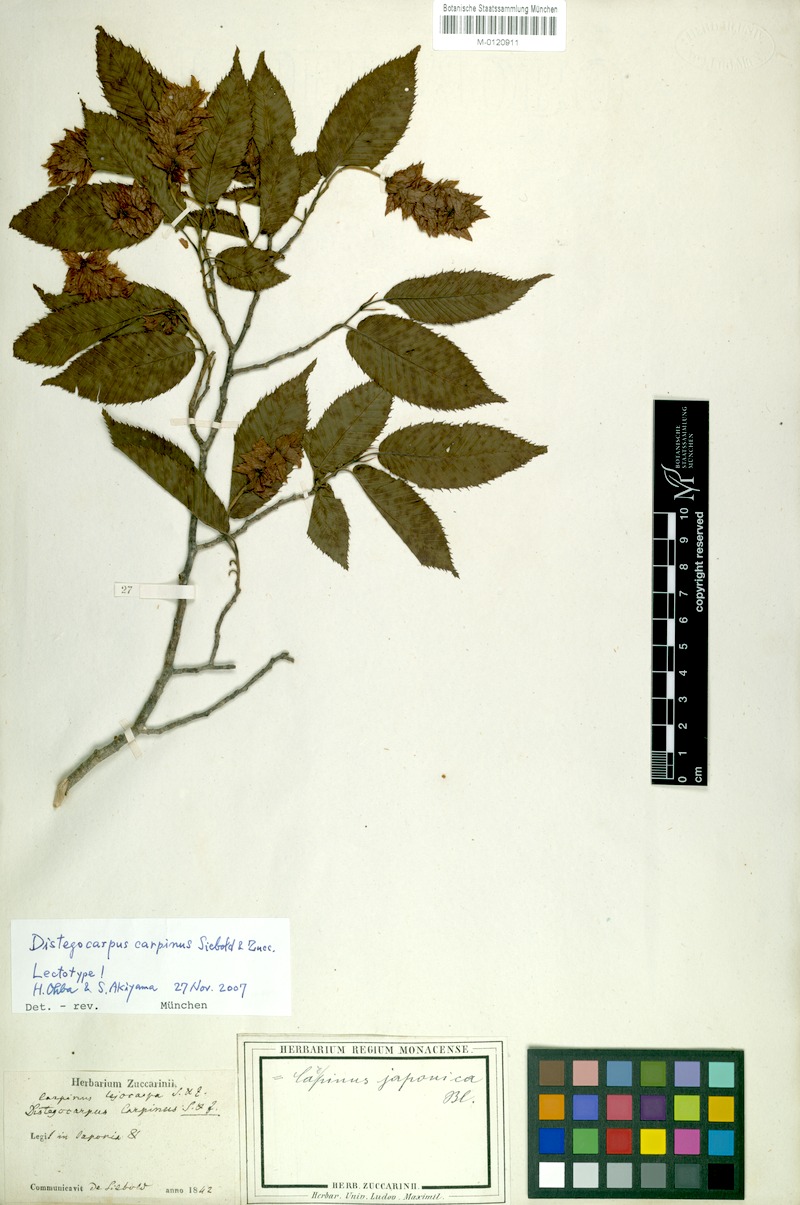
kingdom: Plantae
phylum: Tracheophyta
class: Magnoliopsida
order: Fagales
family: Betulaceae
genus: Carpinus
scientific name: Carpinus japonica
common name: Japanese hornbeam
